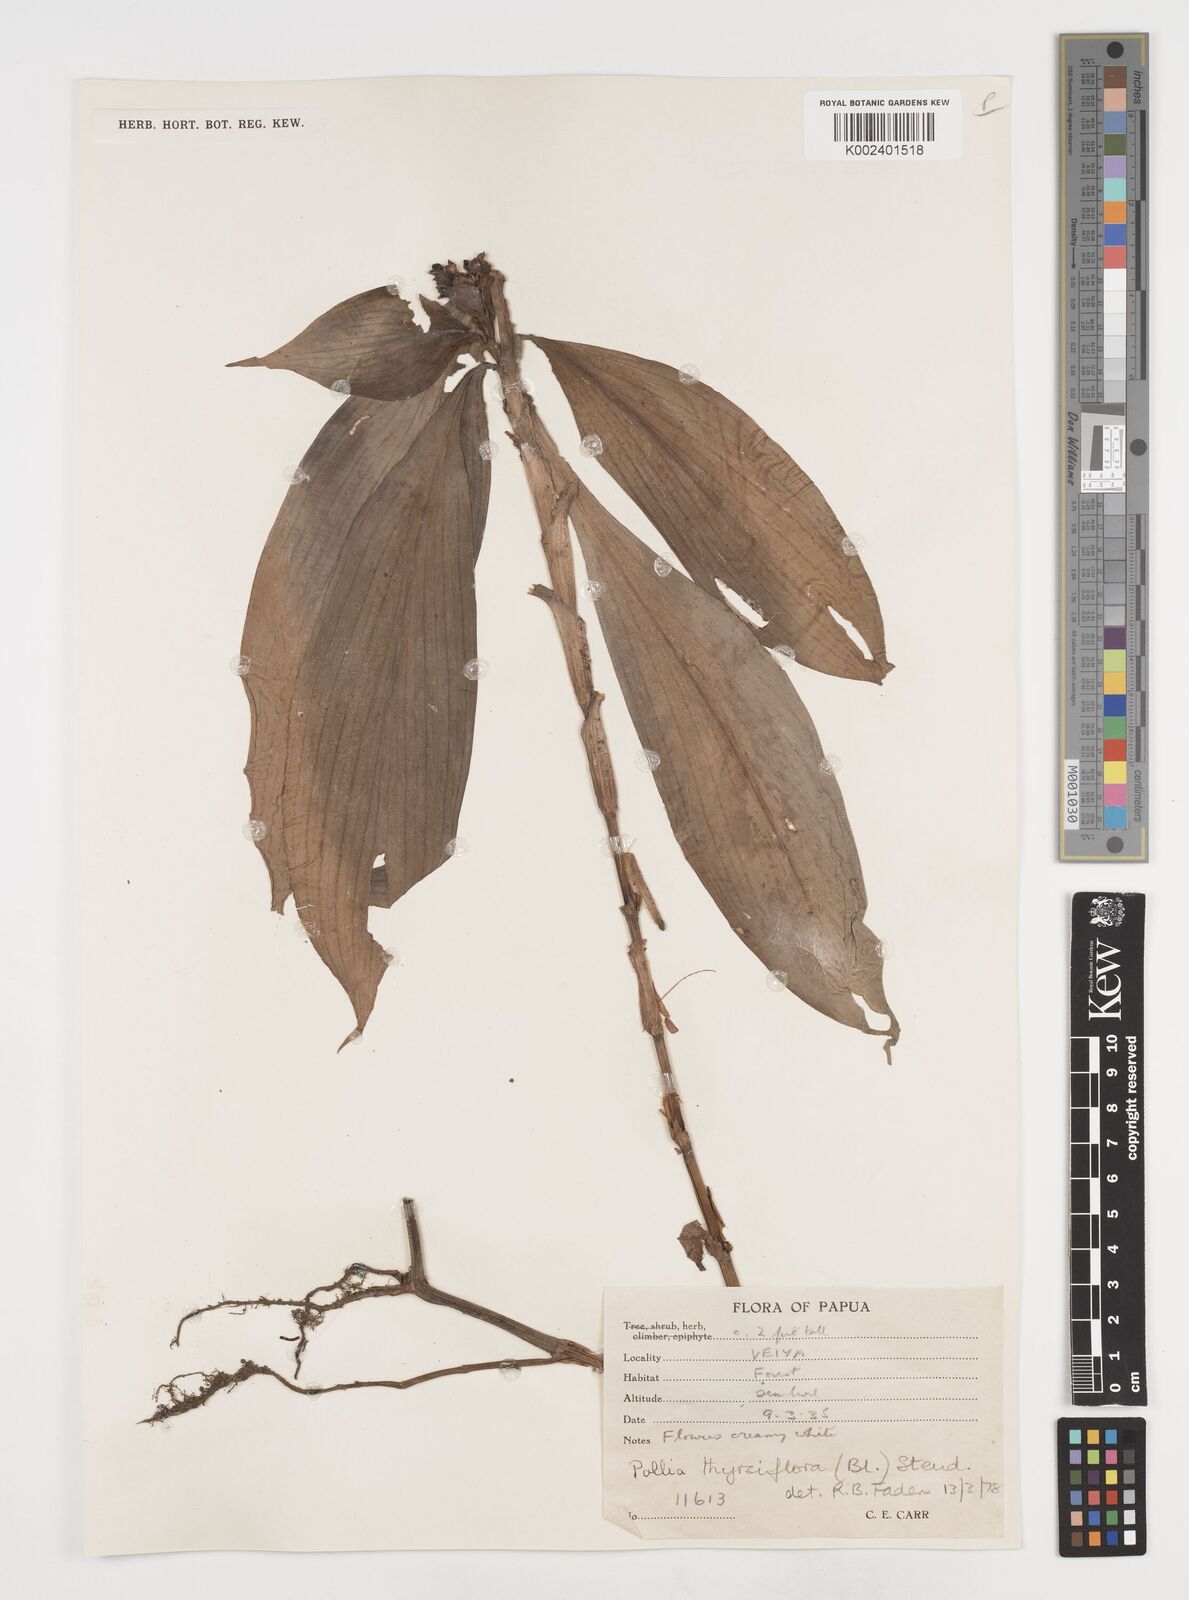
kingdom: Plantae
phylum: Tracheophyta
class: Liliopsida
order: Commelinales
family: Commelinaceae
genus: Pollia
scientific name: Pollia thyrsiflora
